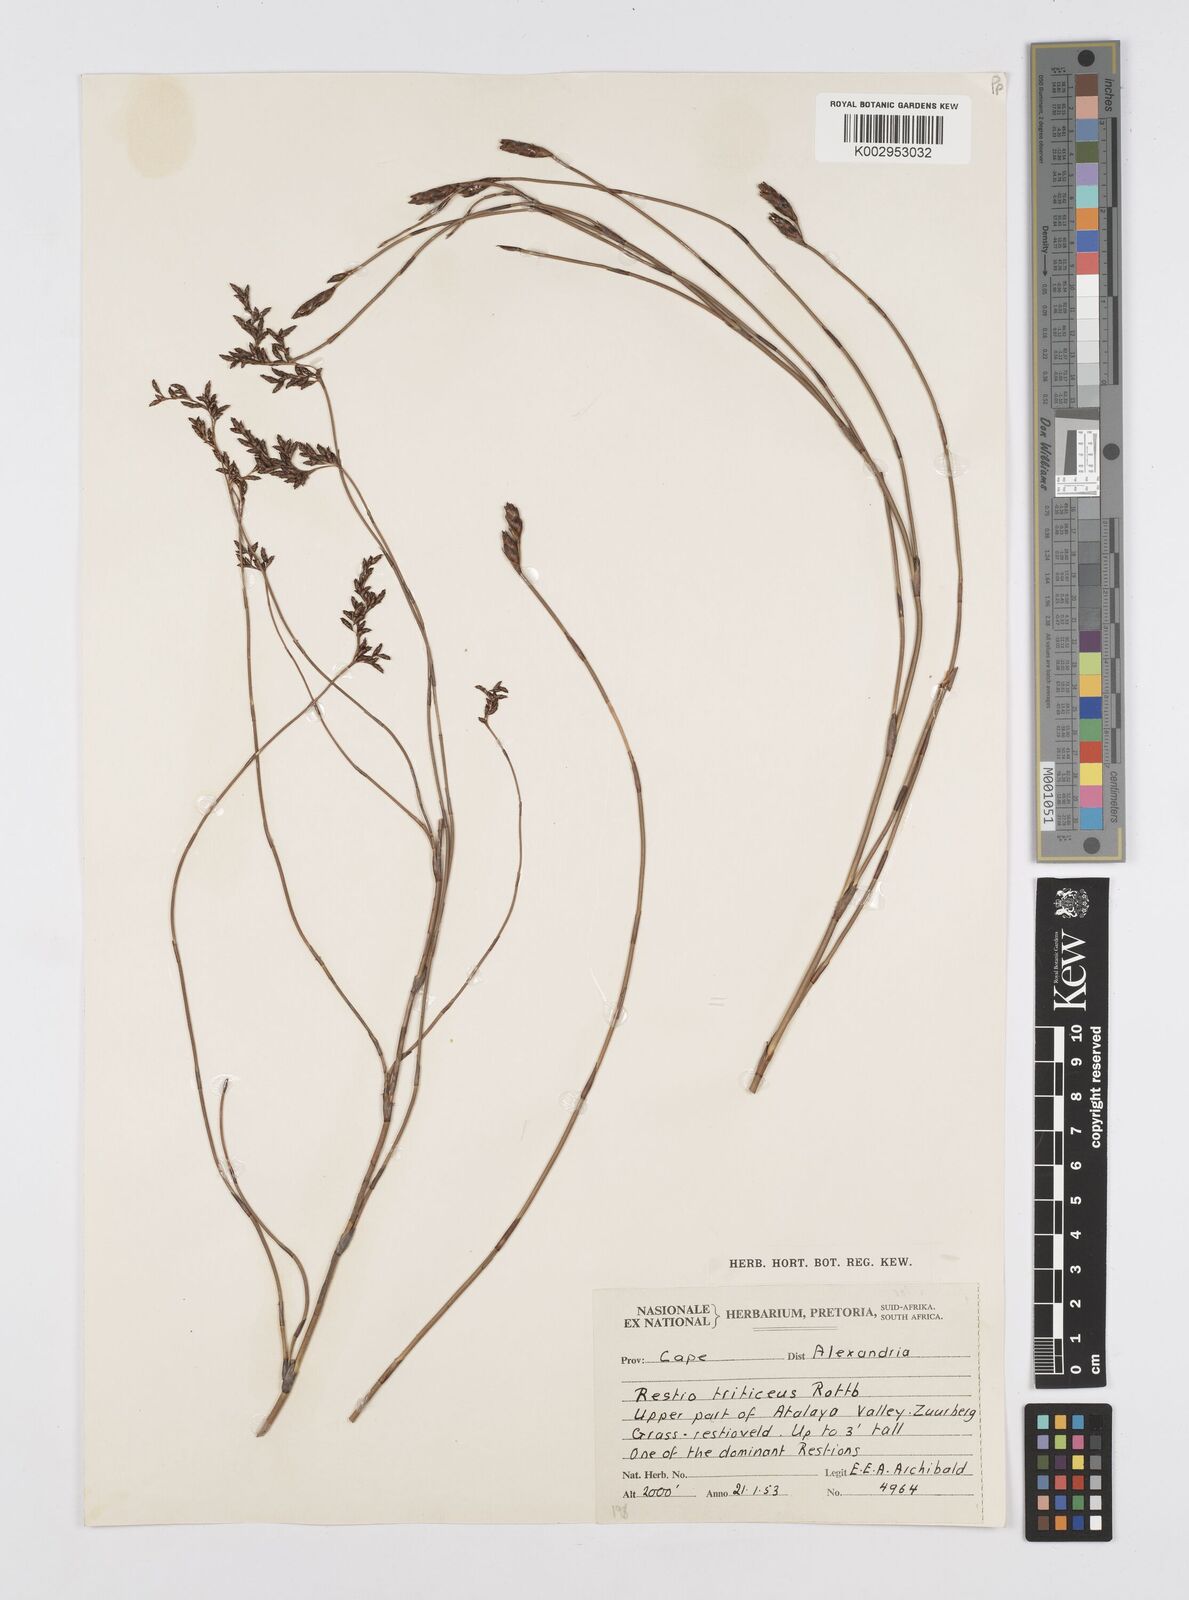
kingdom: Plantae
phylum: Tracheophyta
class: Liliopsida
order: Poales
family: Restionaceae
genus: Restio
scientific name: Restio sieberi
